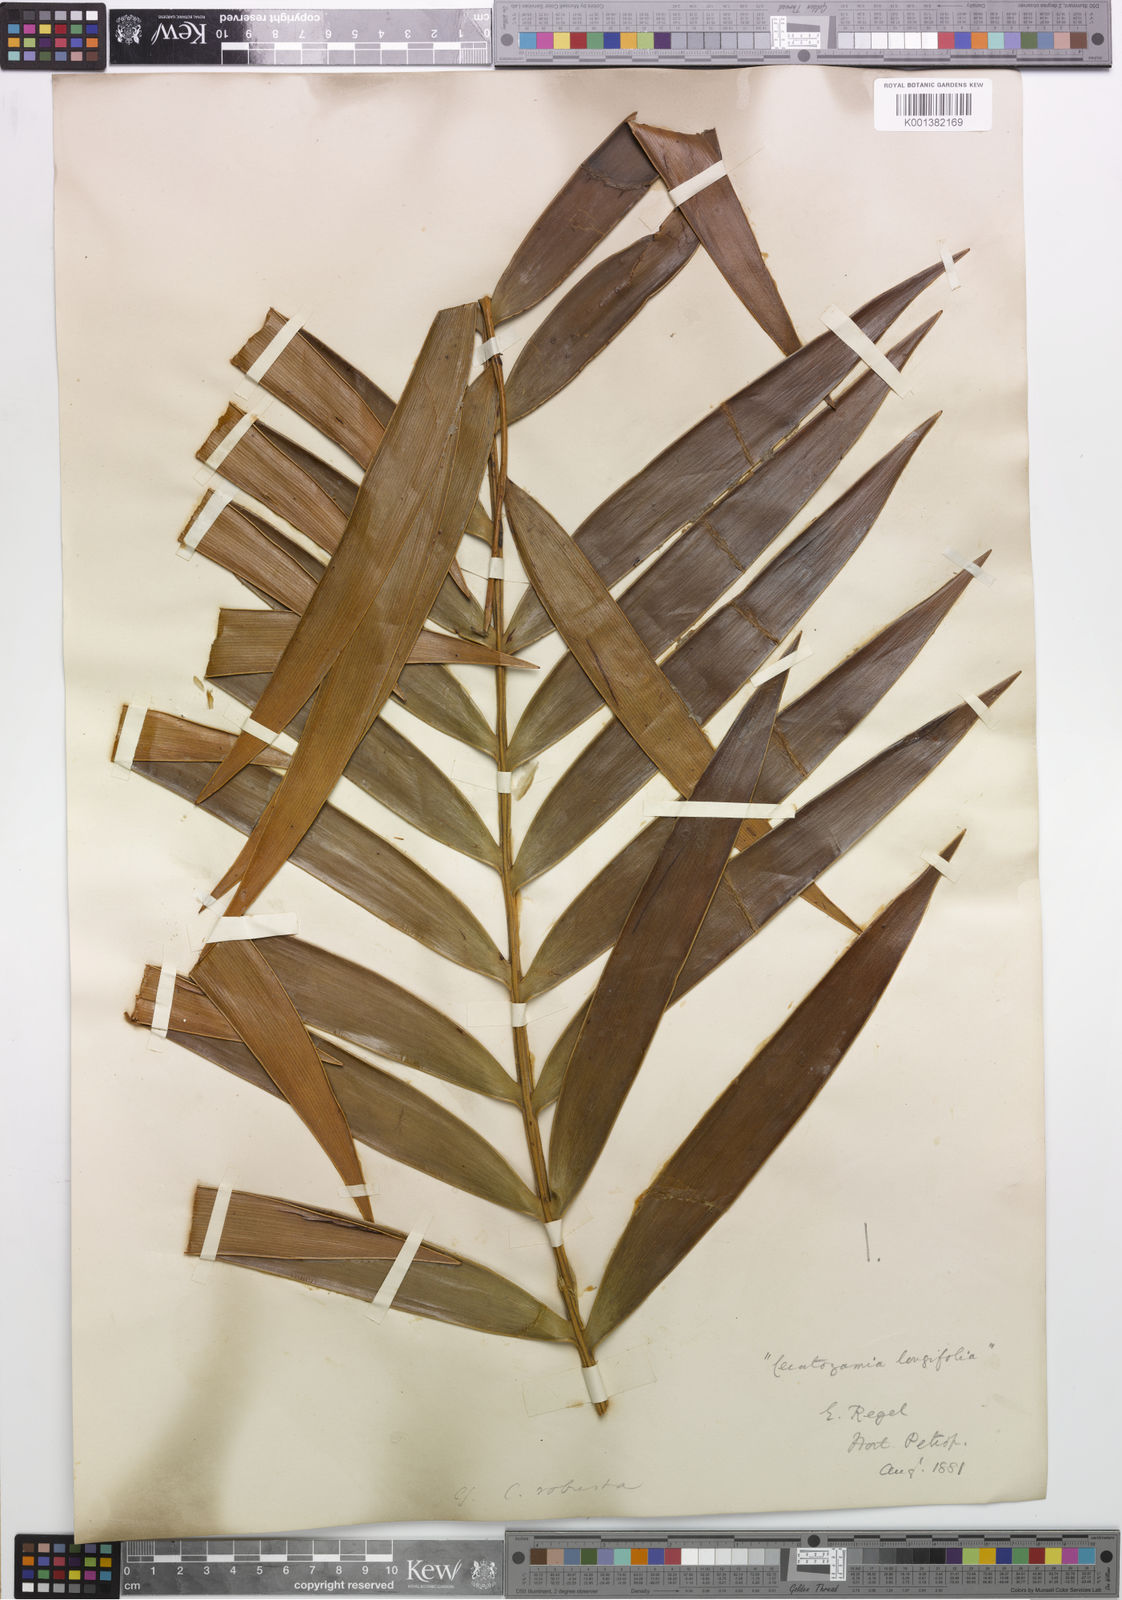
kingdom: Plantae
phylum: Tracheophyta
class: Cycadopsida
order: Cycadales
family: Zamiaceae
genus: Ceratozamia
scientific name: Ceratozamia robusta
